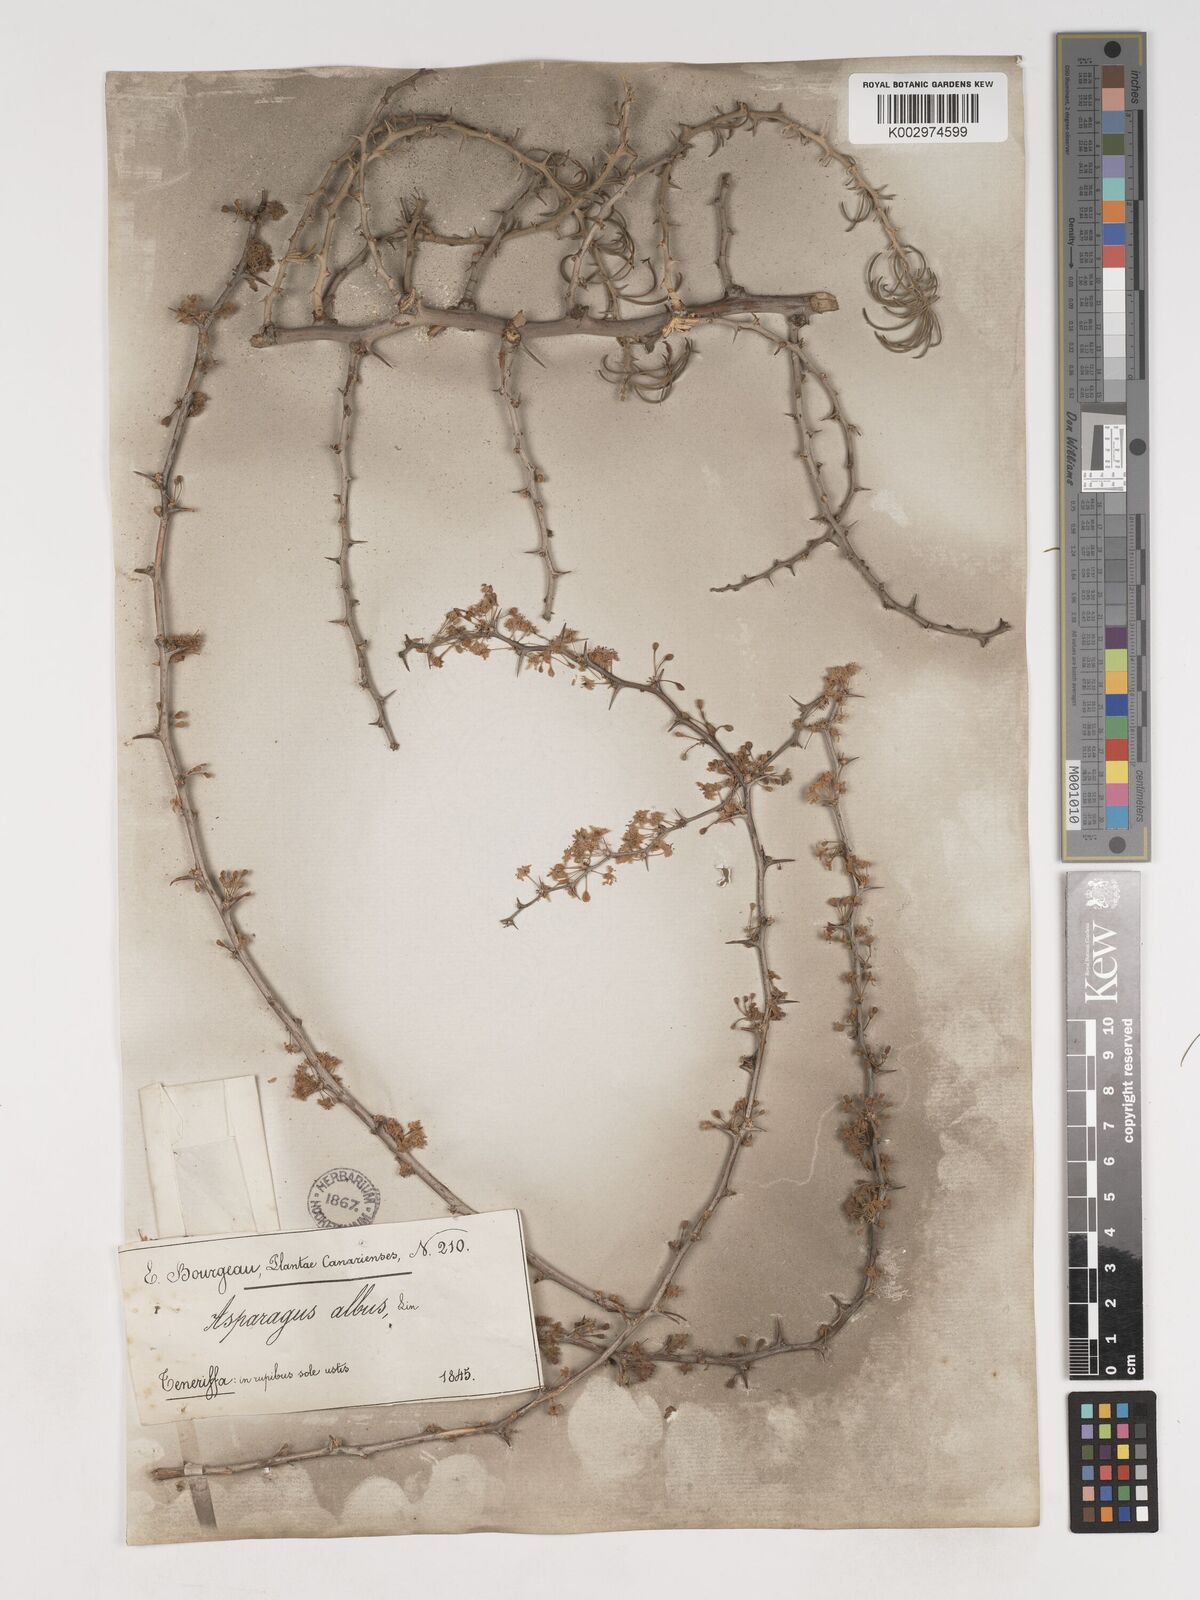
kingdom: Plantae
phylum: Tracheophyta
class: Liliopsida
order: Asparagales
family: Asparagaceae
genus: Asparagus
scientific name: Asparagus albus
